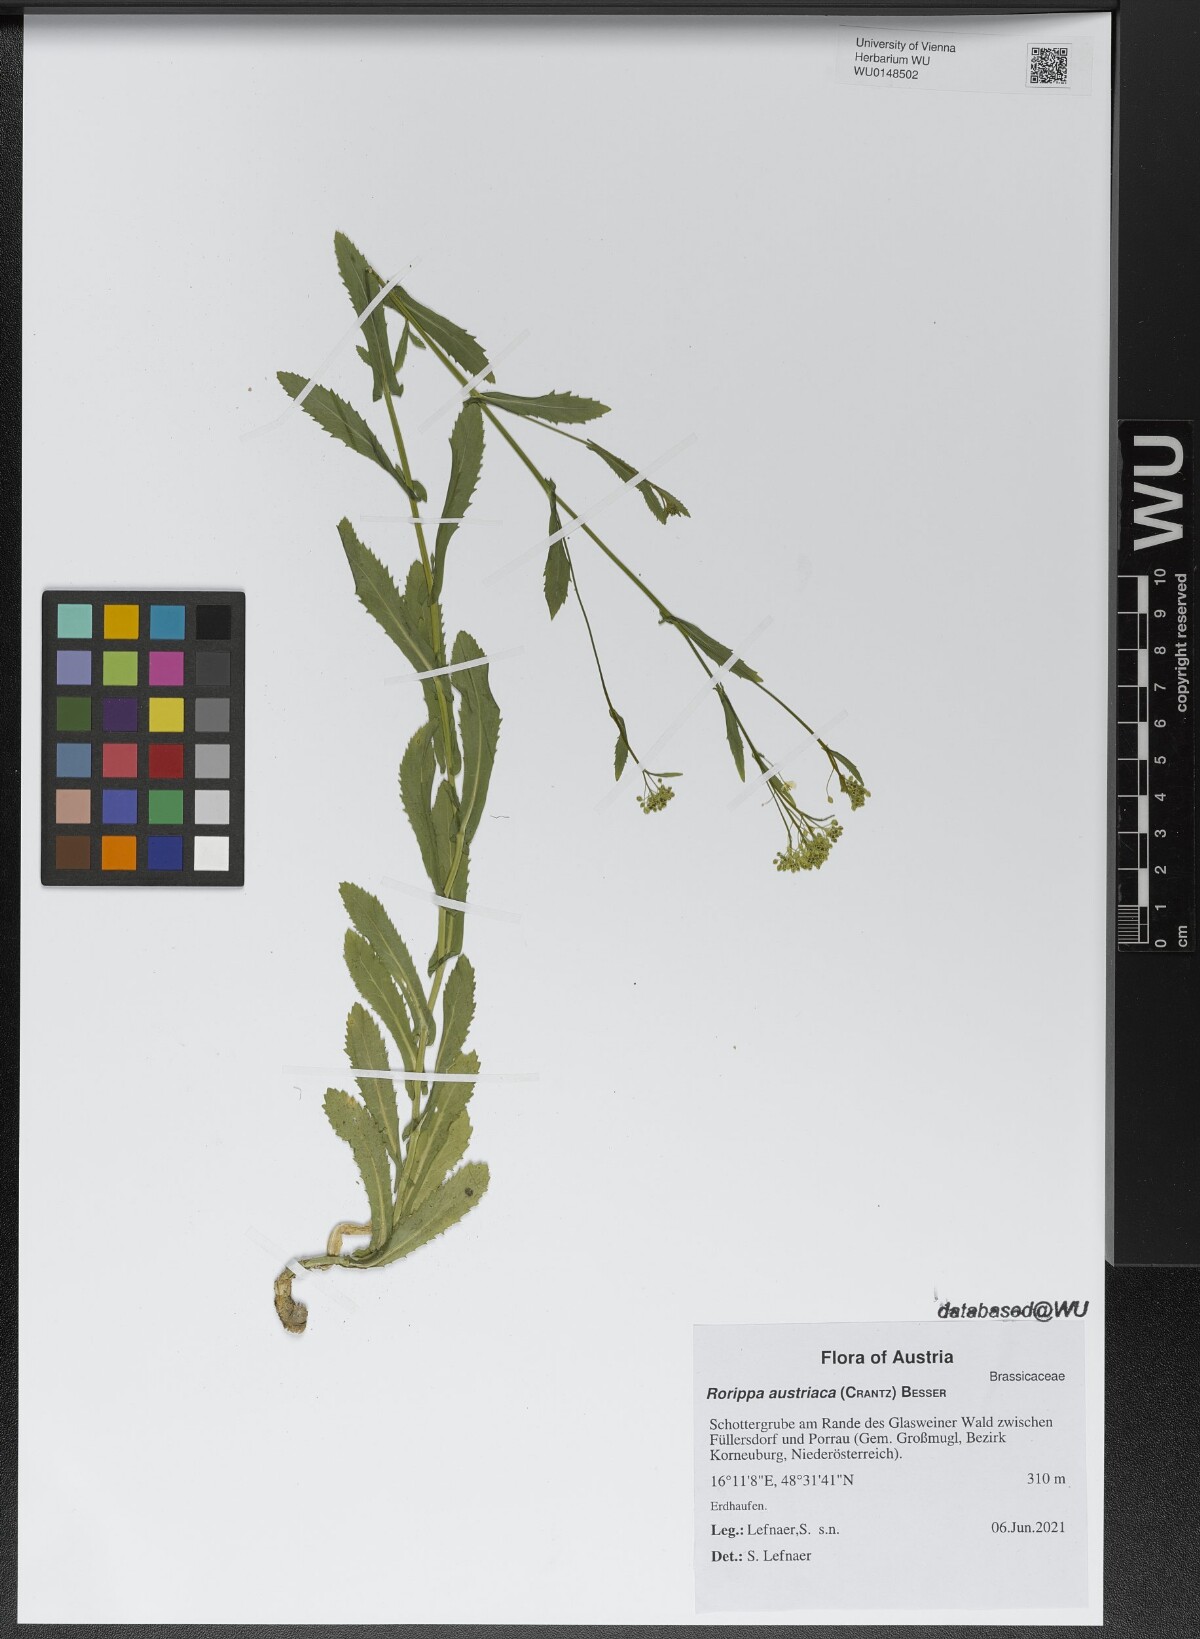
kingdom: Plantae
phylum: Tracheophyta
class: Magnoliopsida
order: Brassicales
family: Brassicaceae
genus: Rorippa
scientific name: Rorippa austriaca
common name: Austrian yellow-cress
